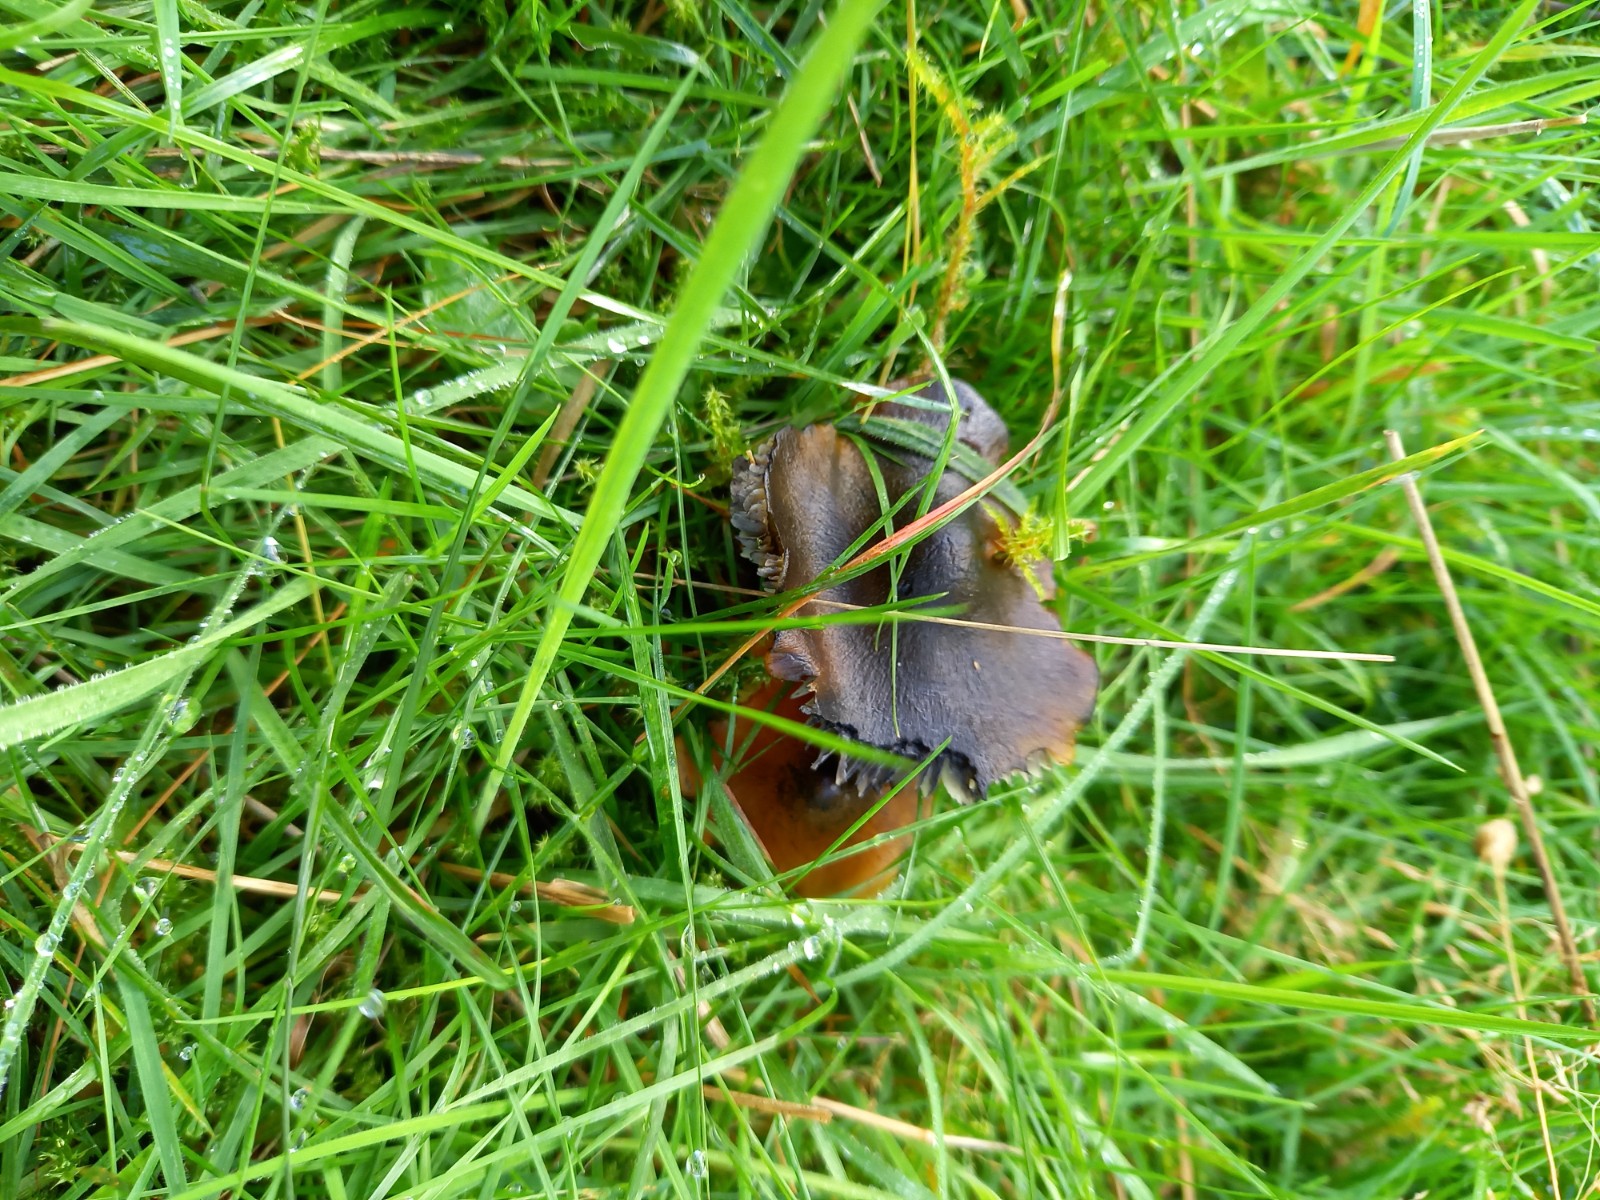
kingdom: Fungi
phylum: Basidiomycota
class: Agaricomycetes
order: Agaricales
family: Hygrophoraceae
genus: Hygrocybe
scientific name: Hygrocybe conica
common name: kegle-vokshat
